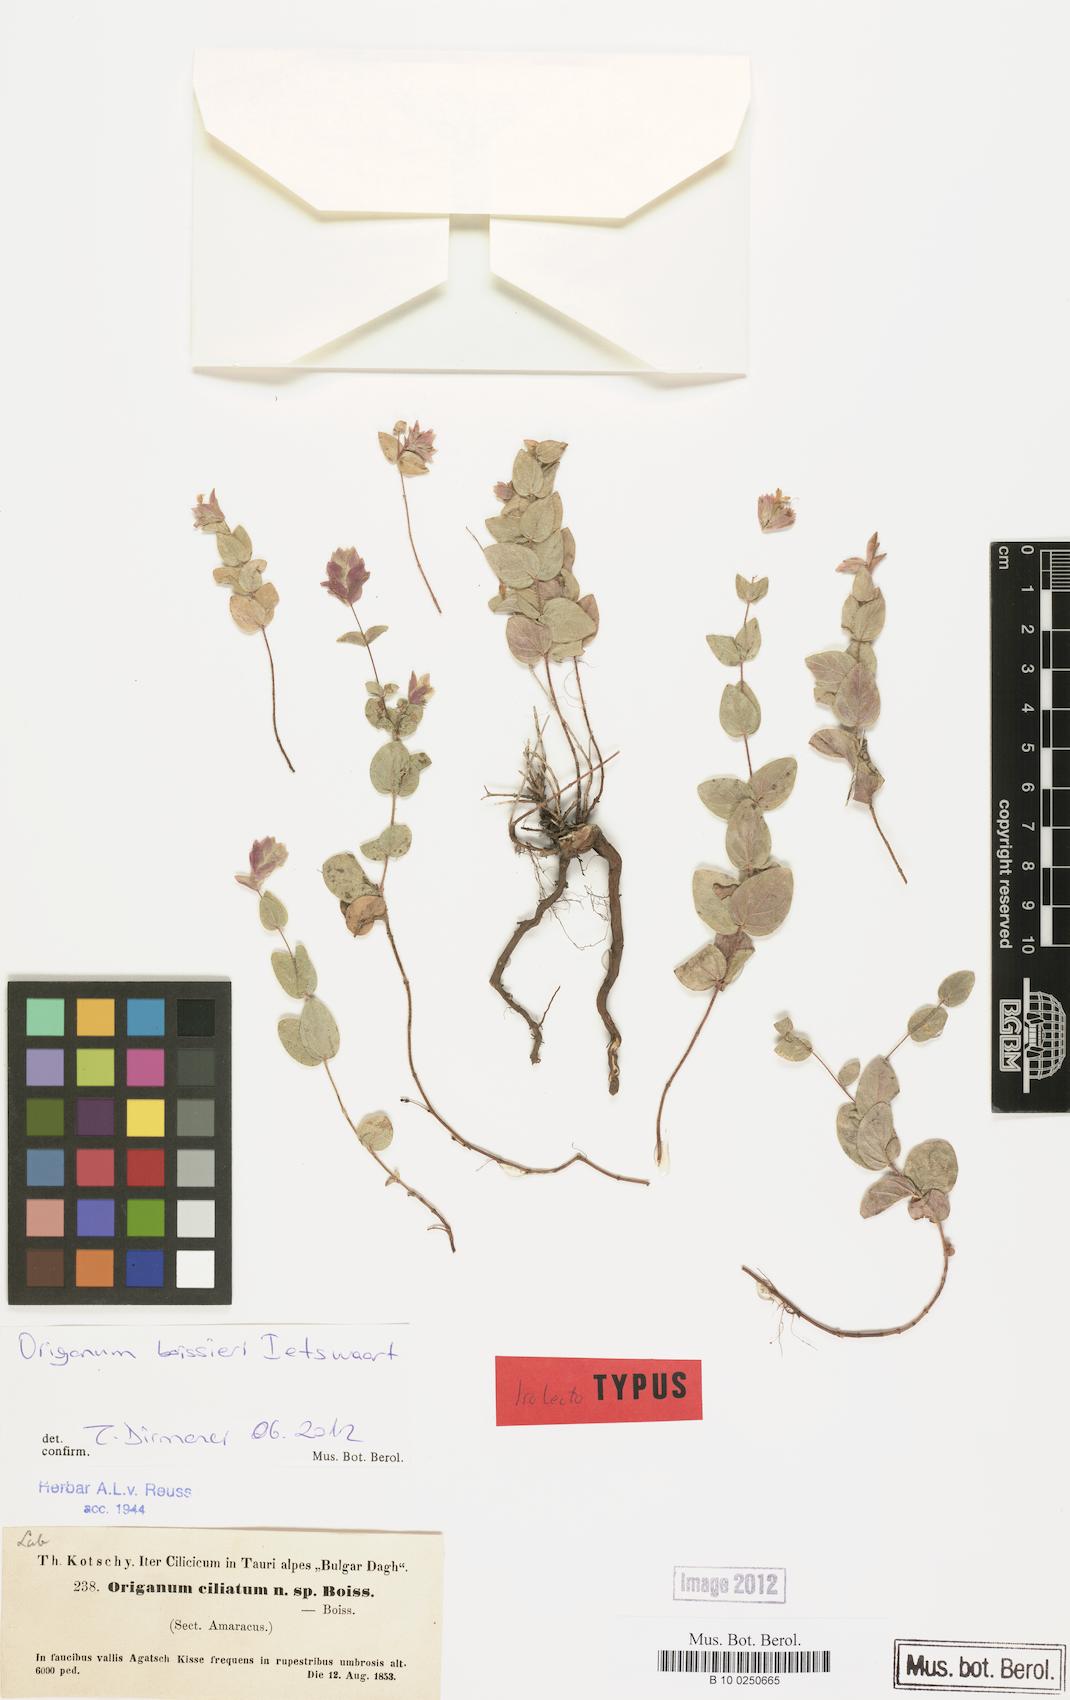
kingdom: Plantae
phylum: Tracheophyta
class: Magnoliopsida
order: Lamiales
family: Lamiaceae
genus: Origanum
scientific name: Origanum boissieri
